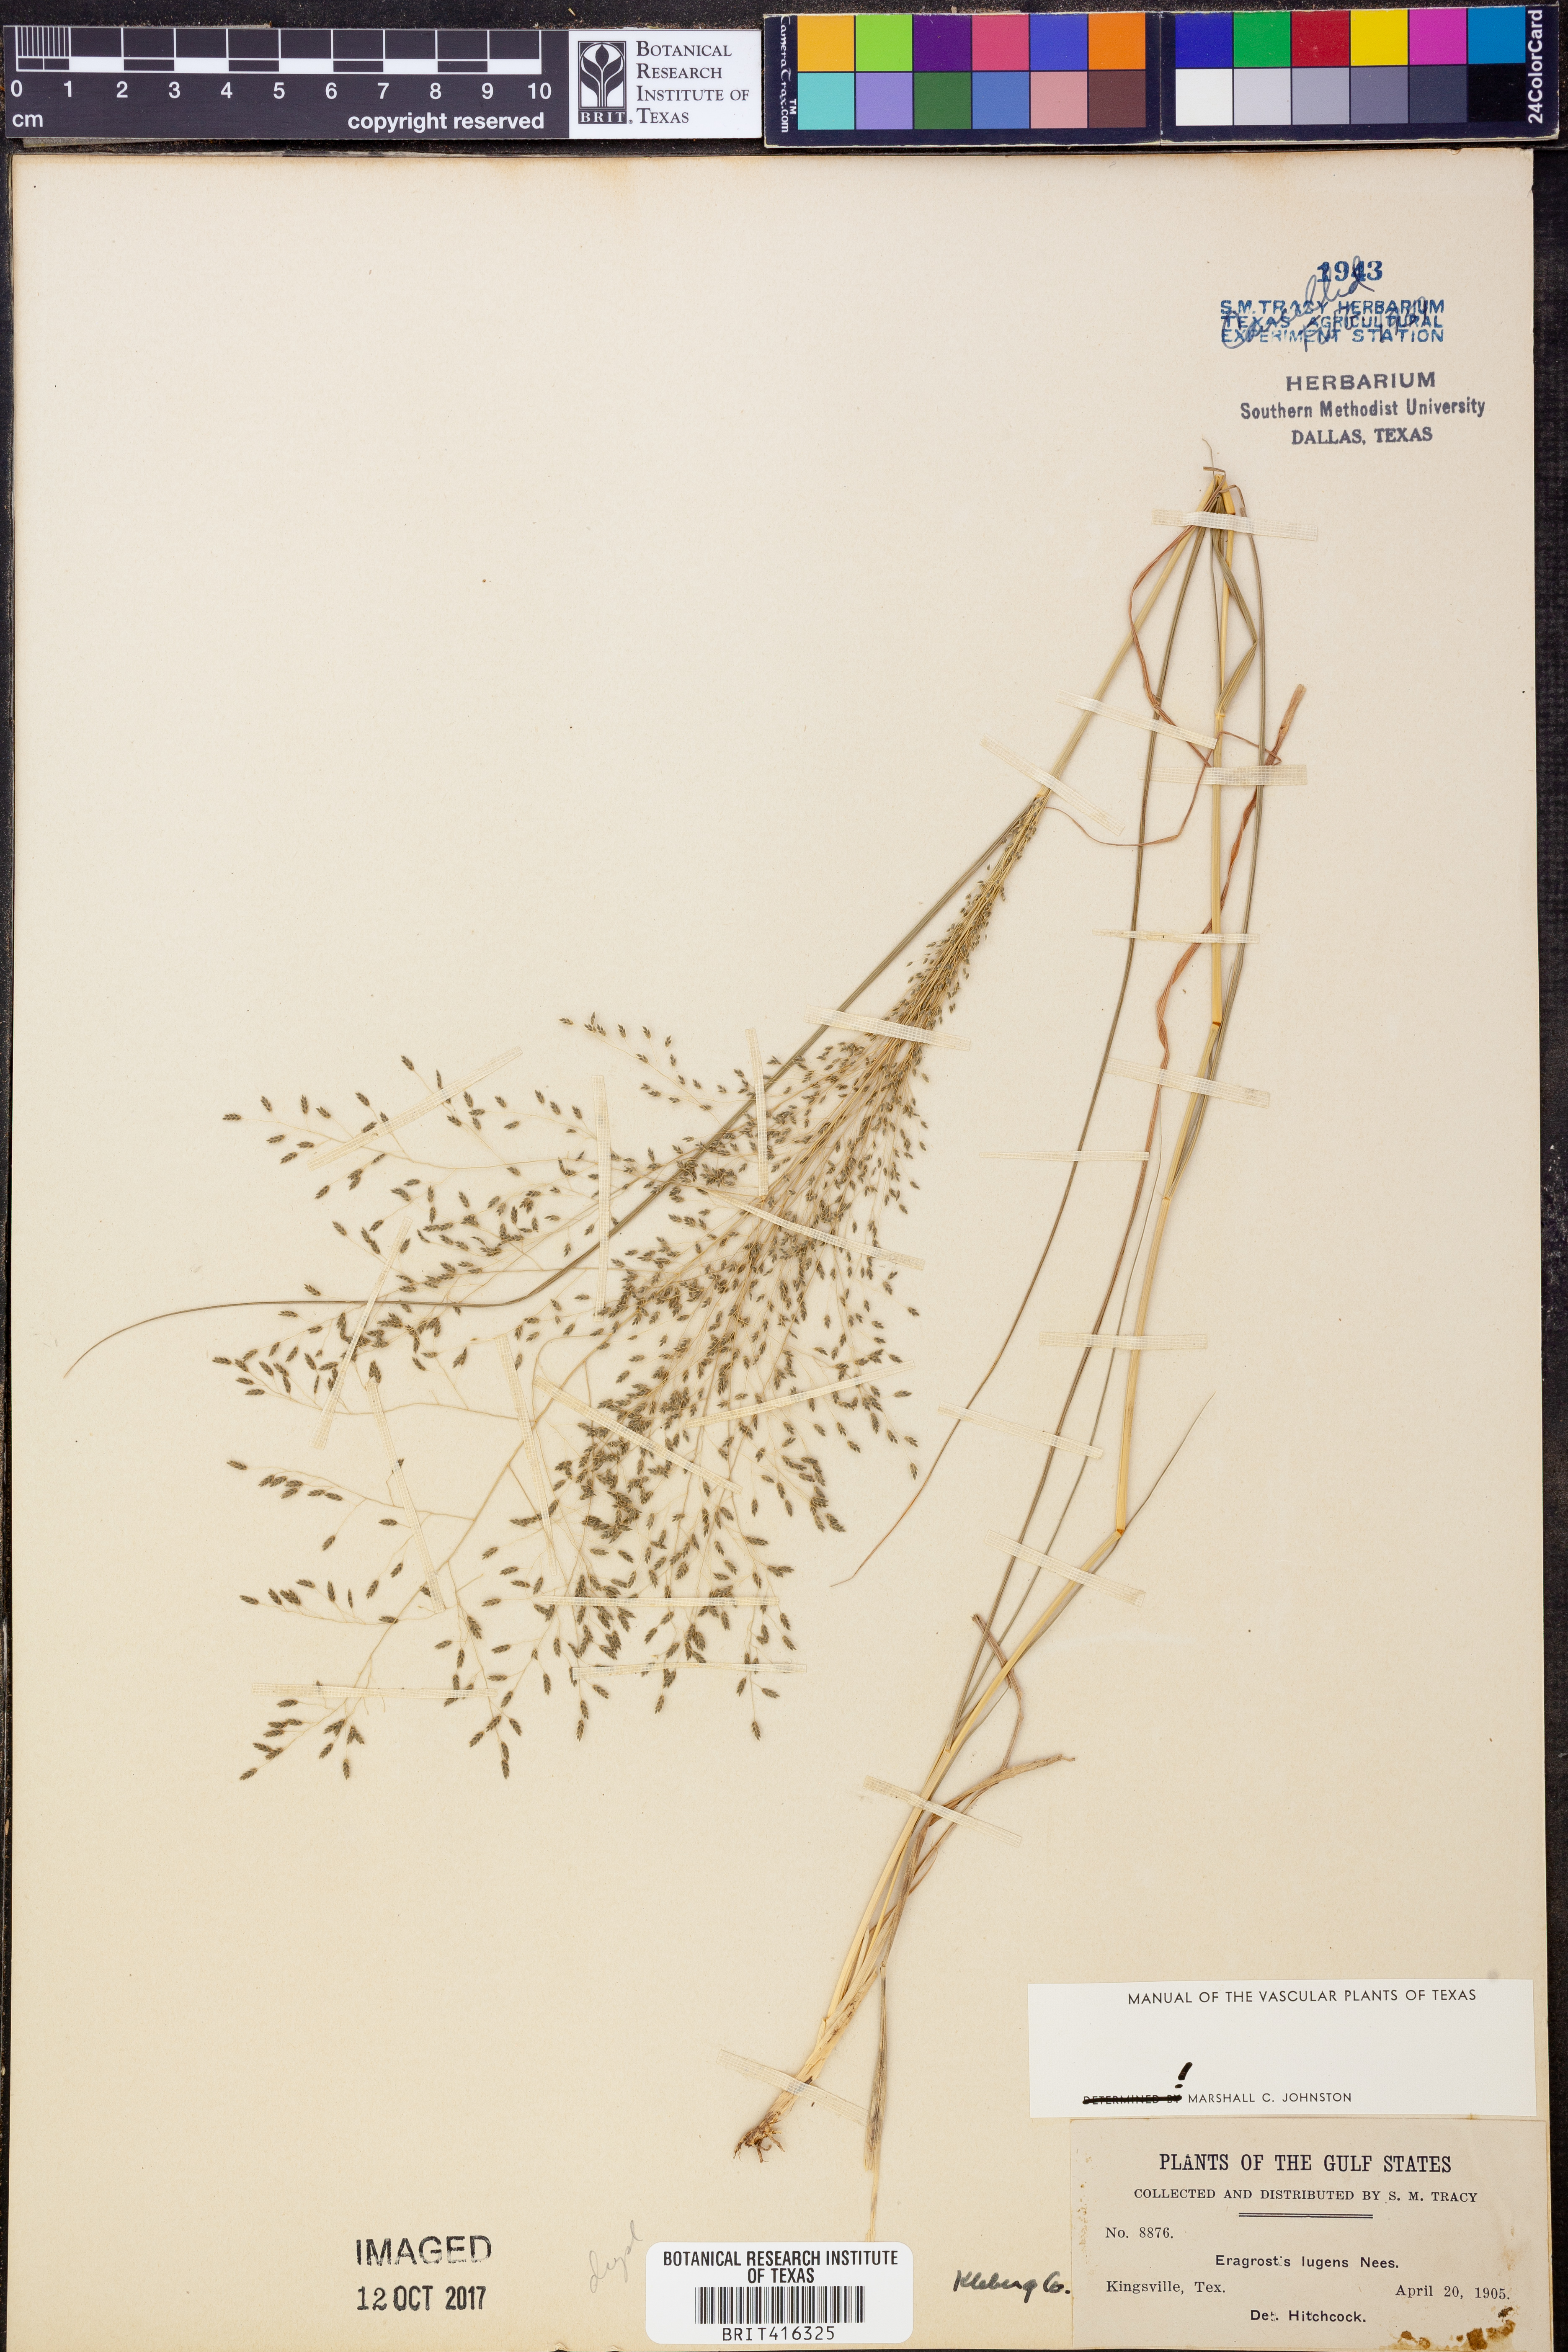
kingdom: Plantae
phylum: Tracheophyta
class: Liliopsida
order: Poales
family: Poaceae
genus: Eragrostis
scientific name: Eragrostis capillaris
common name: Hair-like lovegrass
